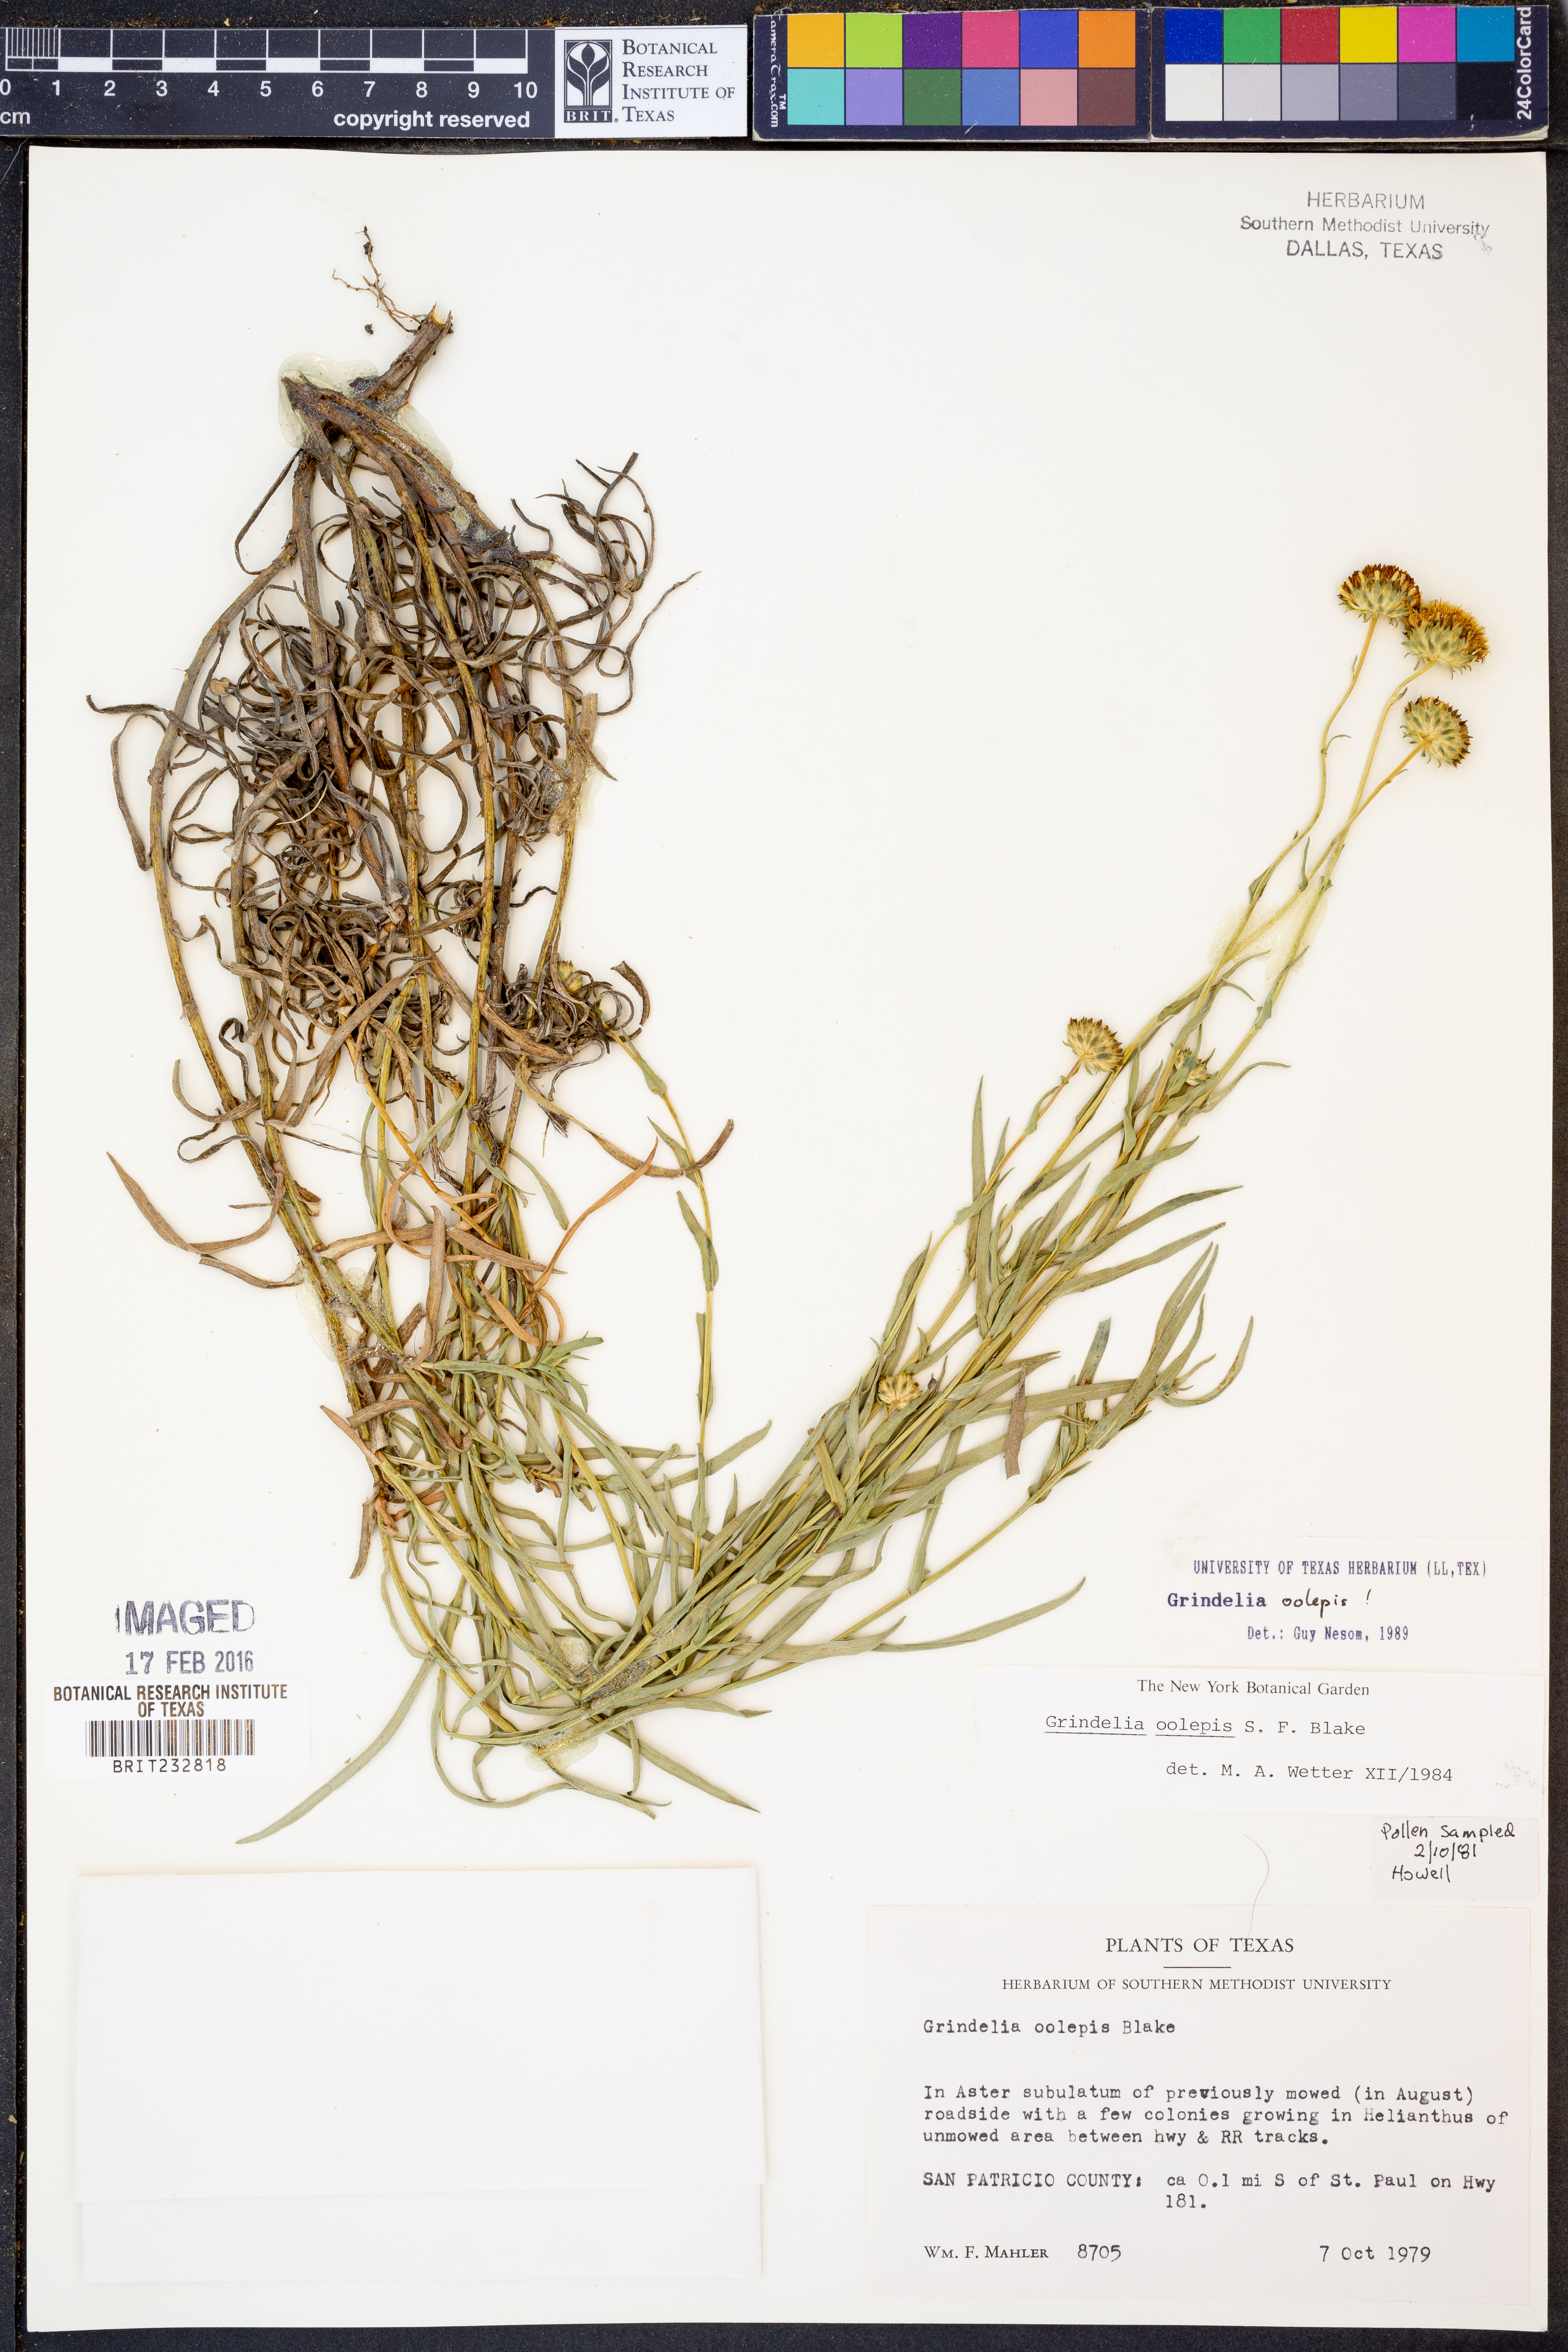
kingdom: Plantae
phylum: Tracheophyta
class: Magnoliopsida
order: Asterales
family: Asteraceae
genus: Grindelia
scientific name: Grindelia oolepis
